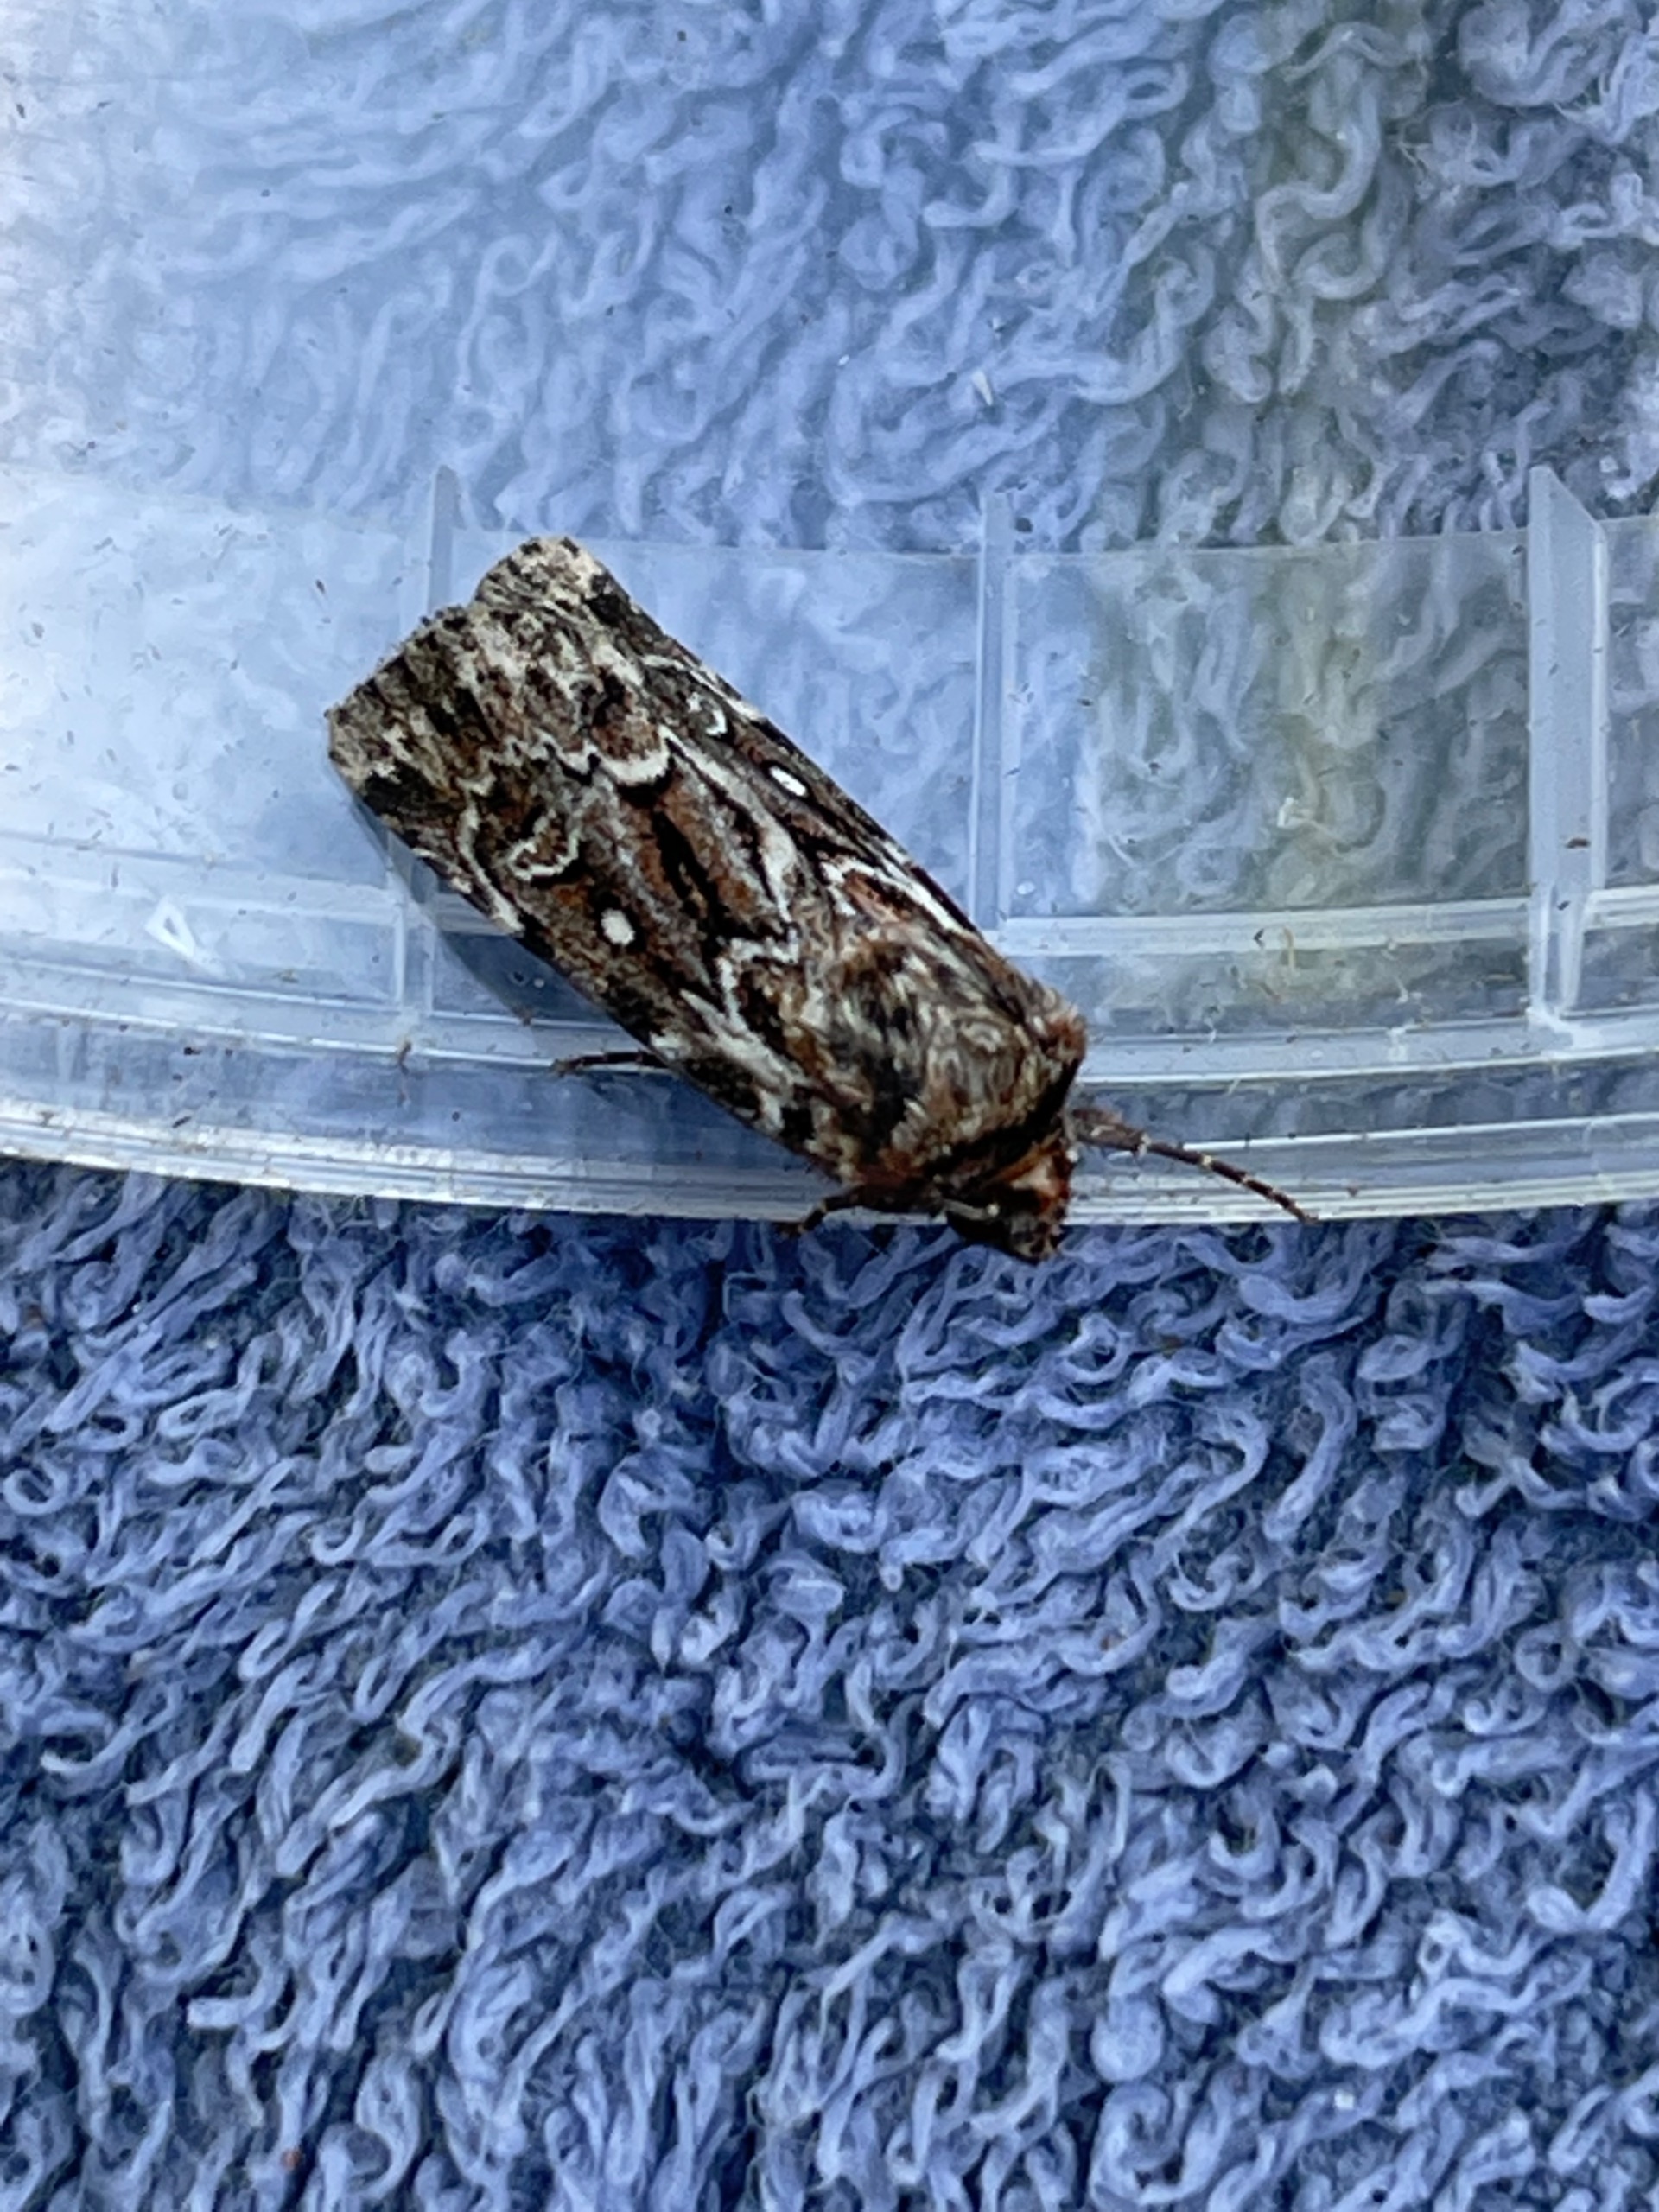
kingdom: Animalia
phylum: Arthropoda
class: Insecta
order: Lepidoptera
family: Noctuidae
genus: Lycophotia
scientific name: Lycophotia porphyrea
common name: Spættet lyngugle
